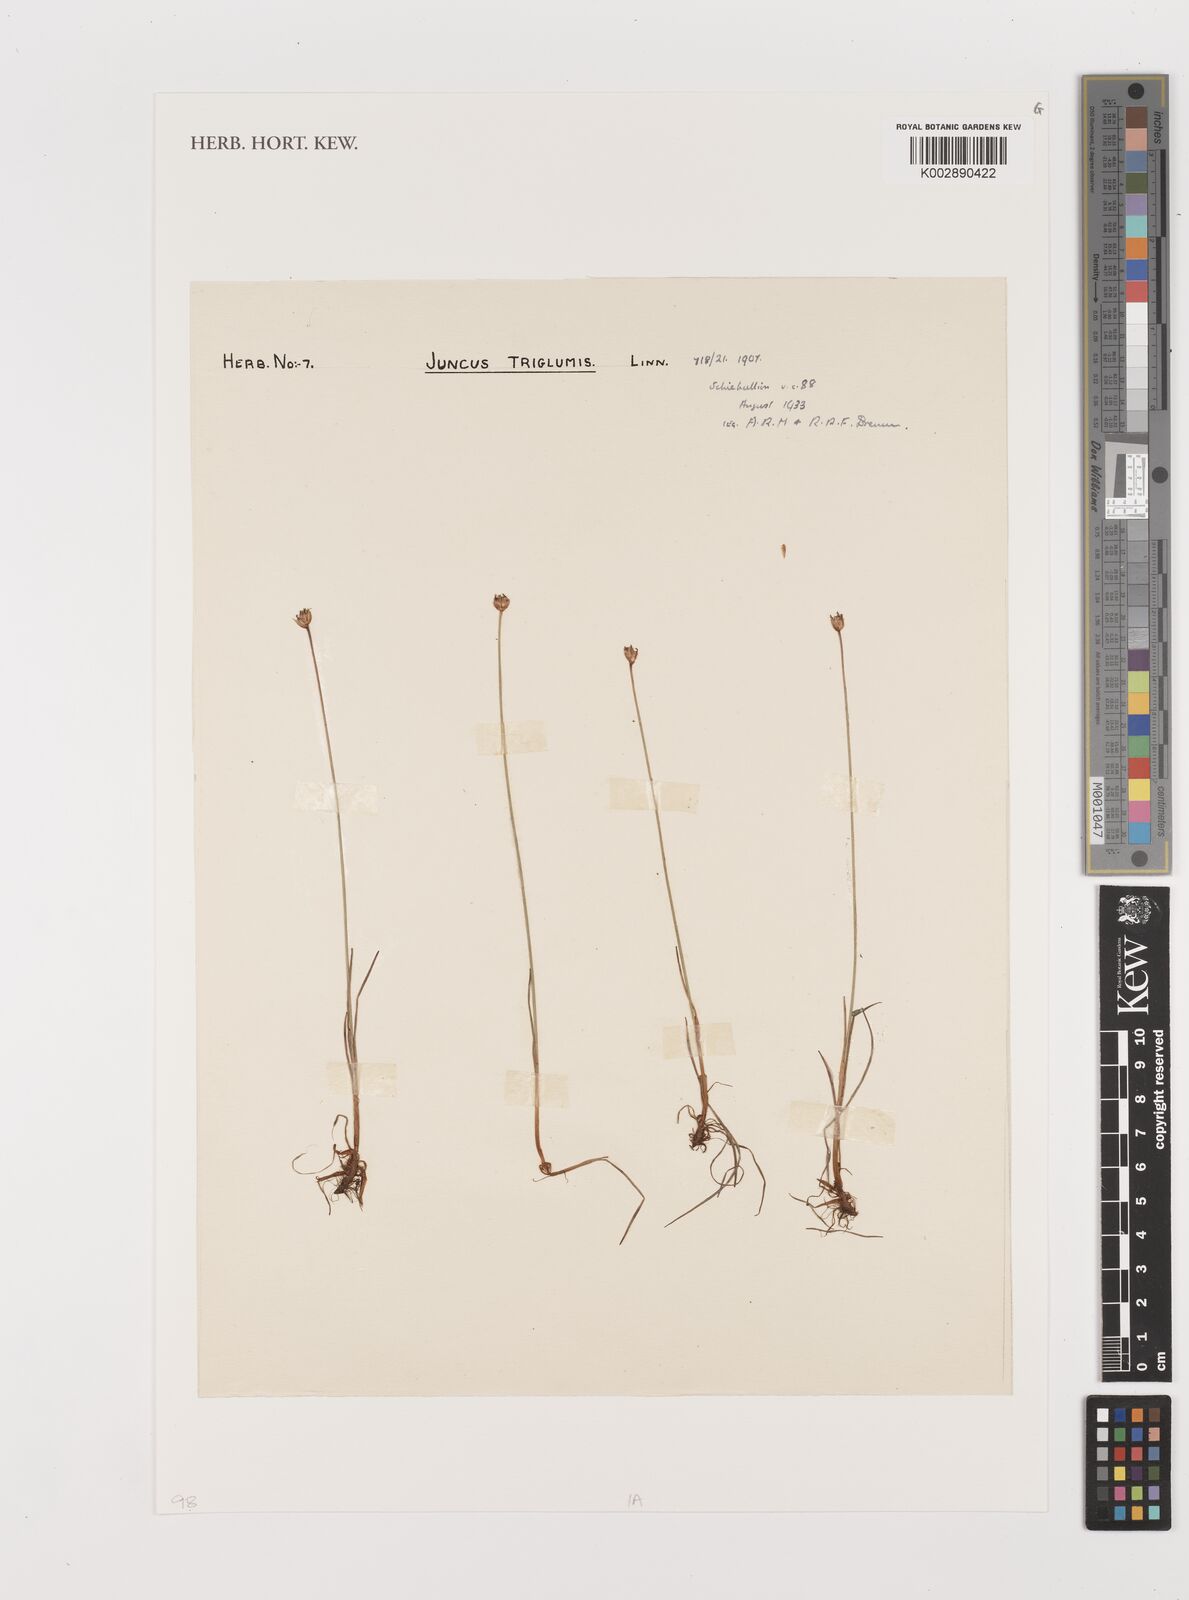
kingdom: Plantae
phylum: Tracheophyta
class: Liliopsida
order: Poales
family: Juncaceae
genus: Juncus
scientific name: Juncus triglumis
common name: Three-flowered rush
